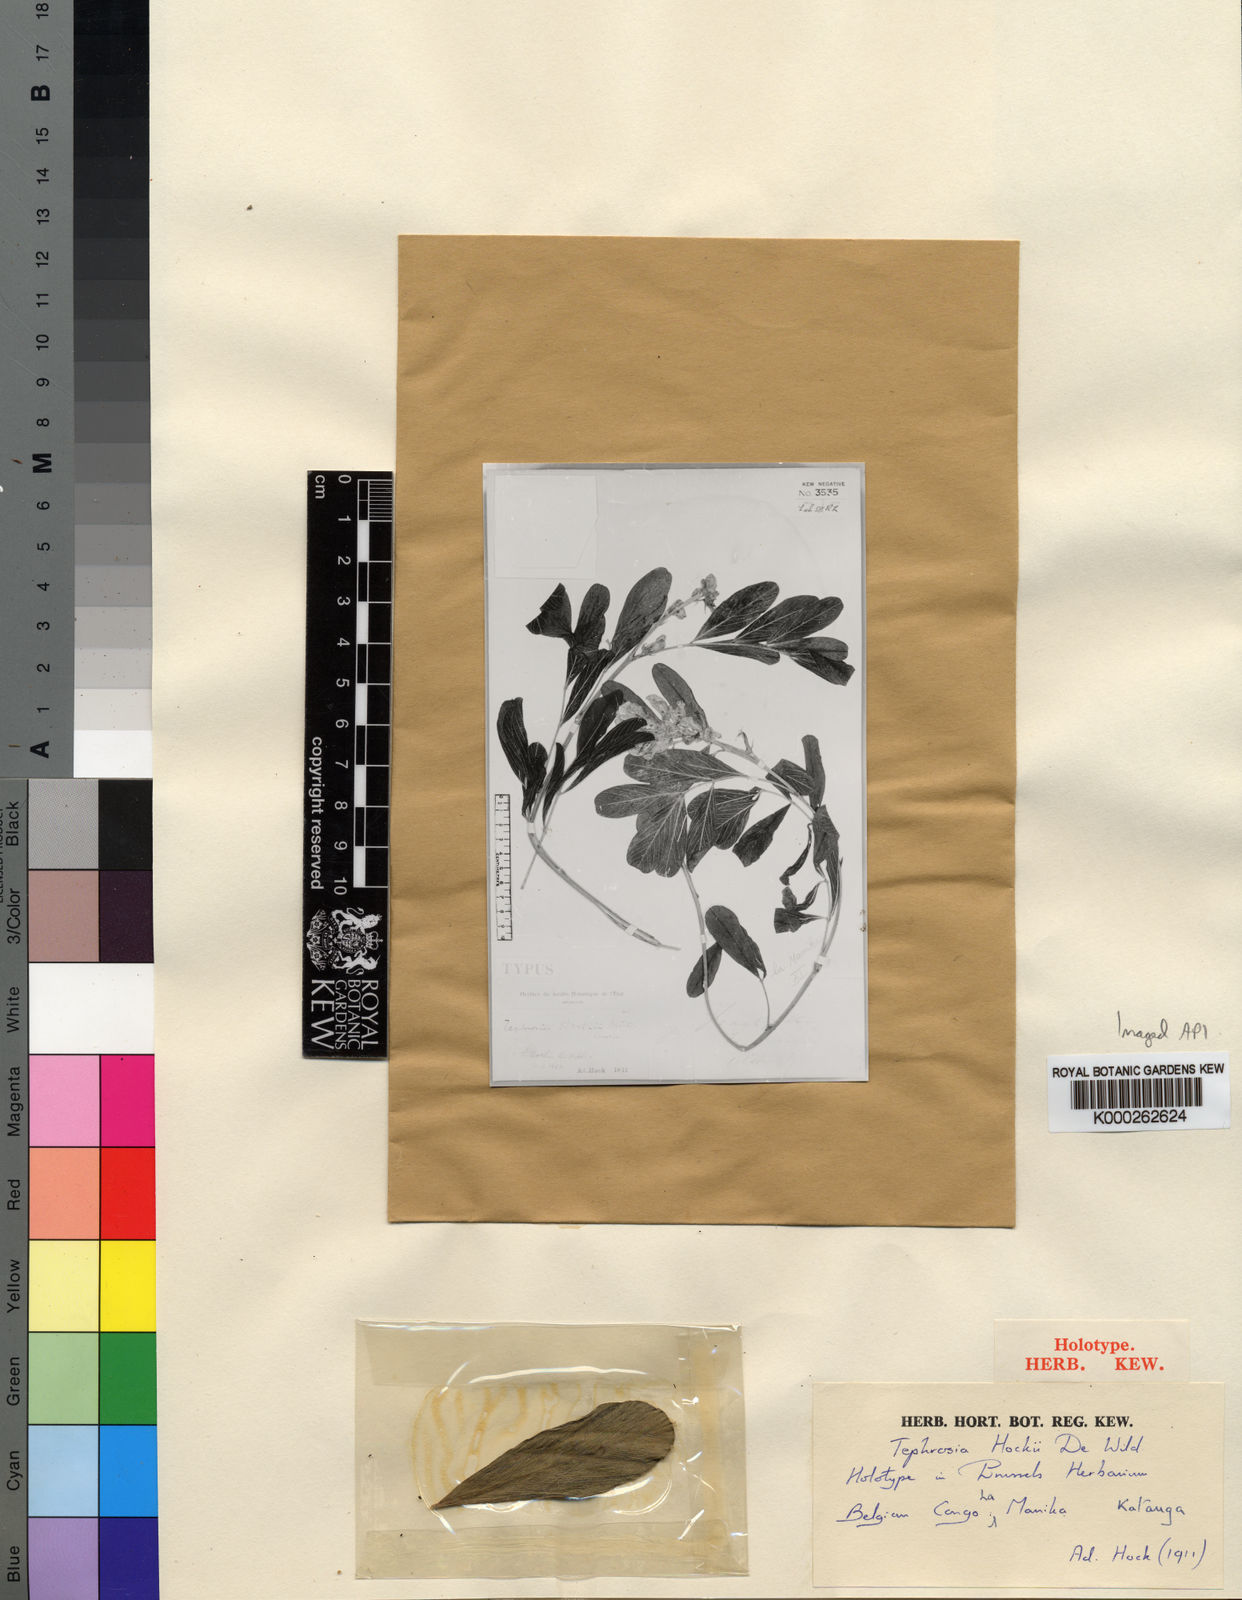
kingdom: Plantae
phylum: Tracheophyta
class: Magnoliopsida
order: Fabales
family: Fabaceae
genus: Tephrosia
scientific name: Tephrosia hockii
